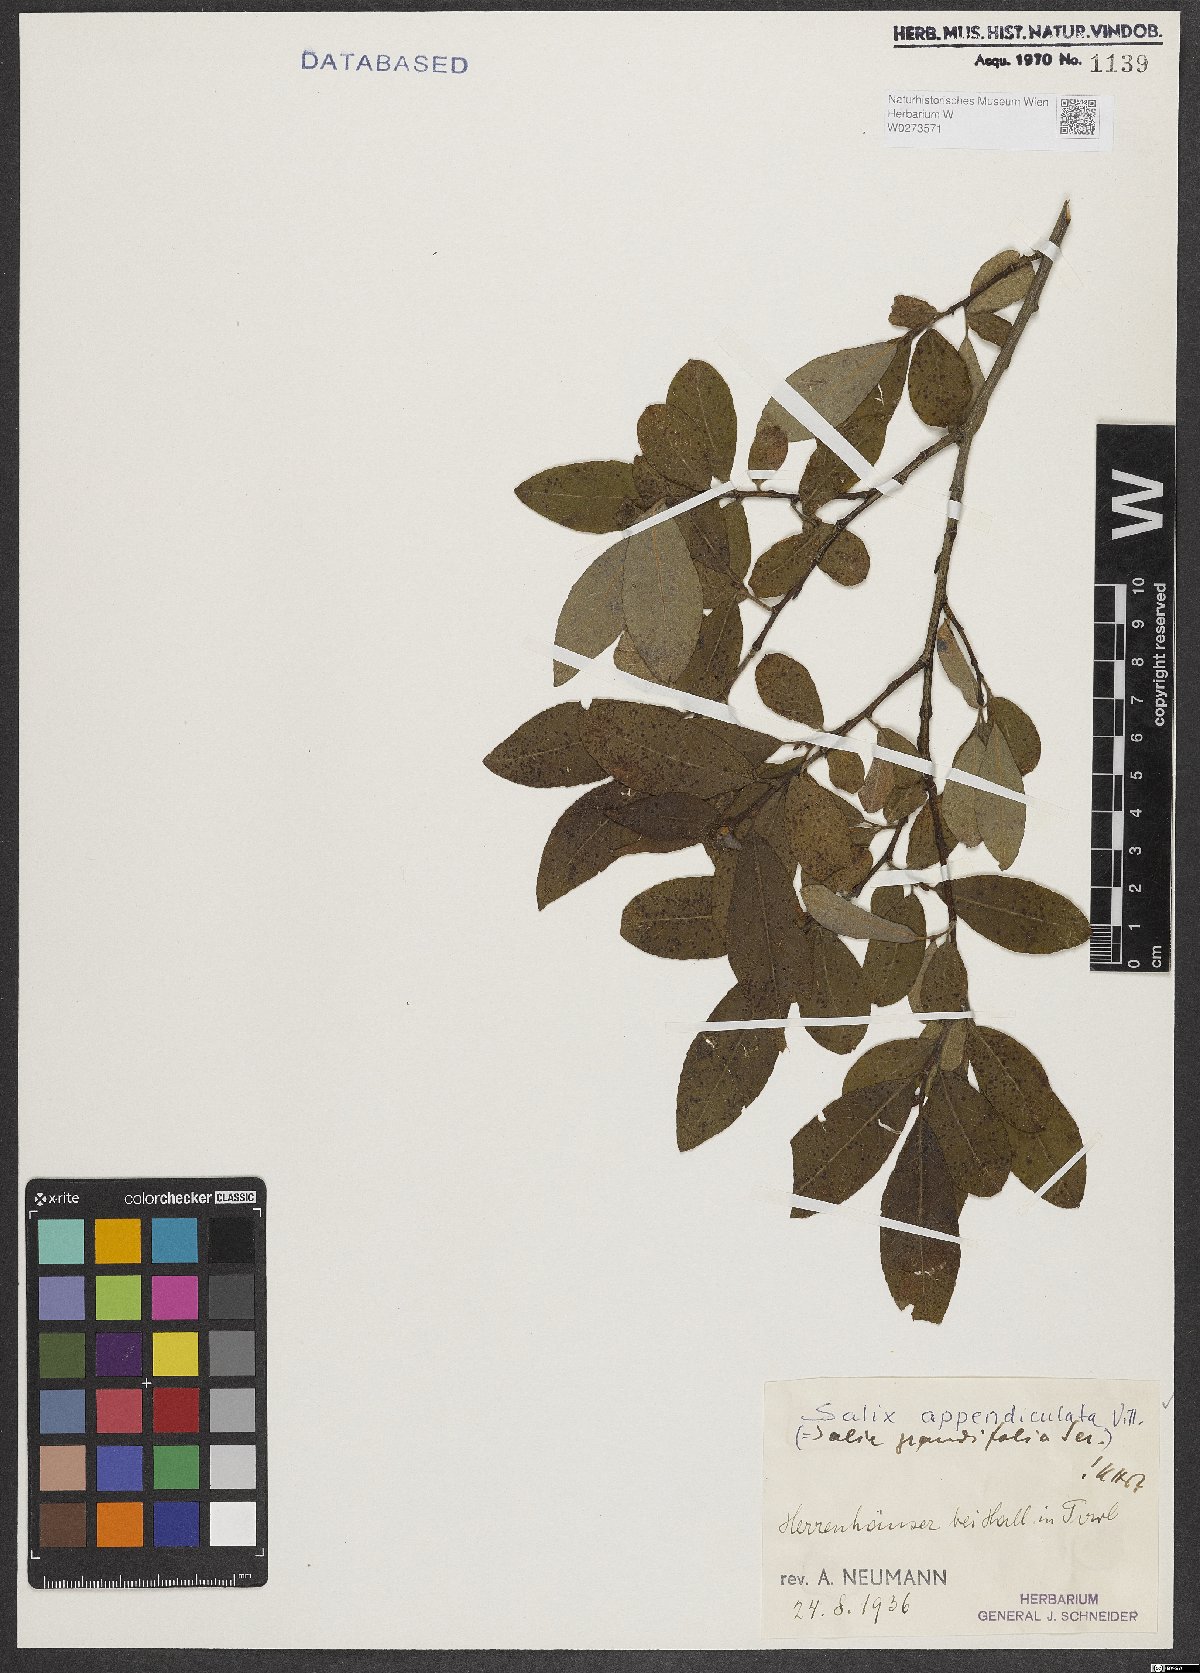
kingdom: Plantae
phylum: Tracheophyta
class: Magnoliopsida
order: Malpighiales
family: Salicaceae
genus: Salix
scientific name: Salix appendiculata
